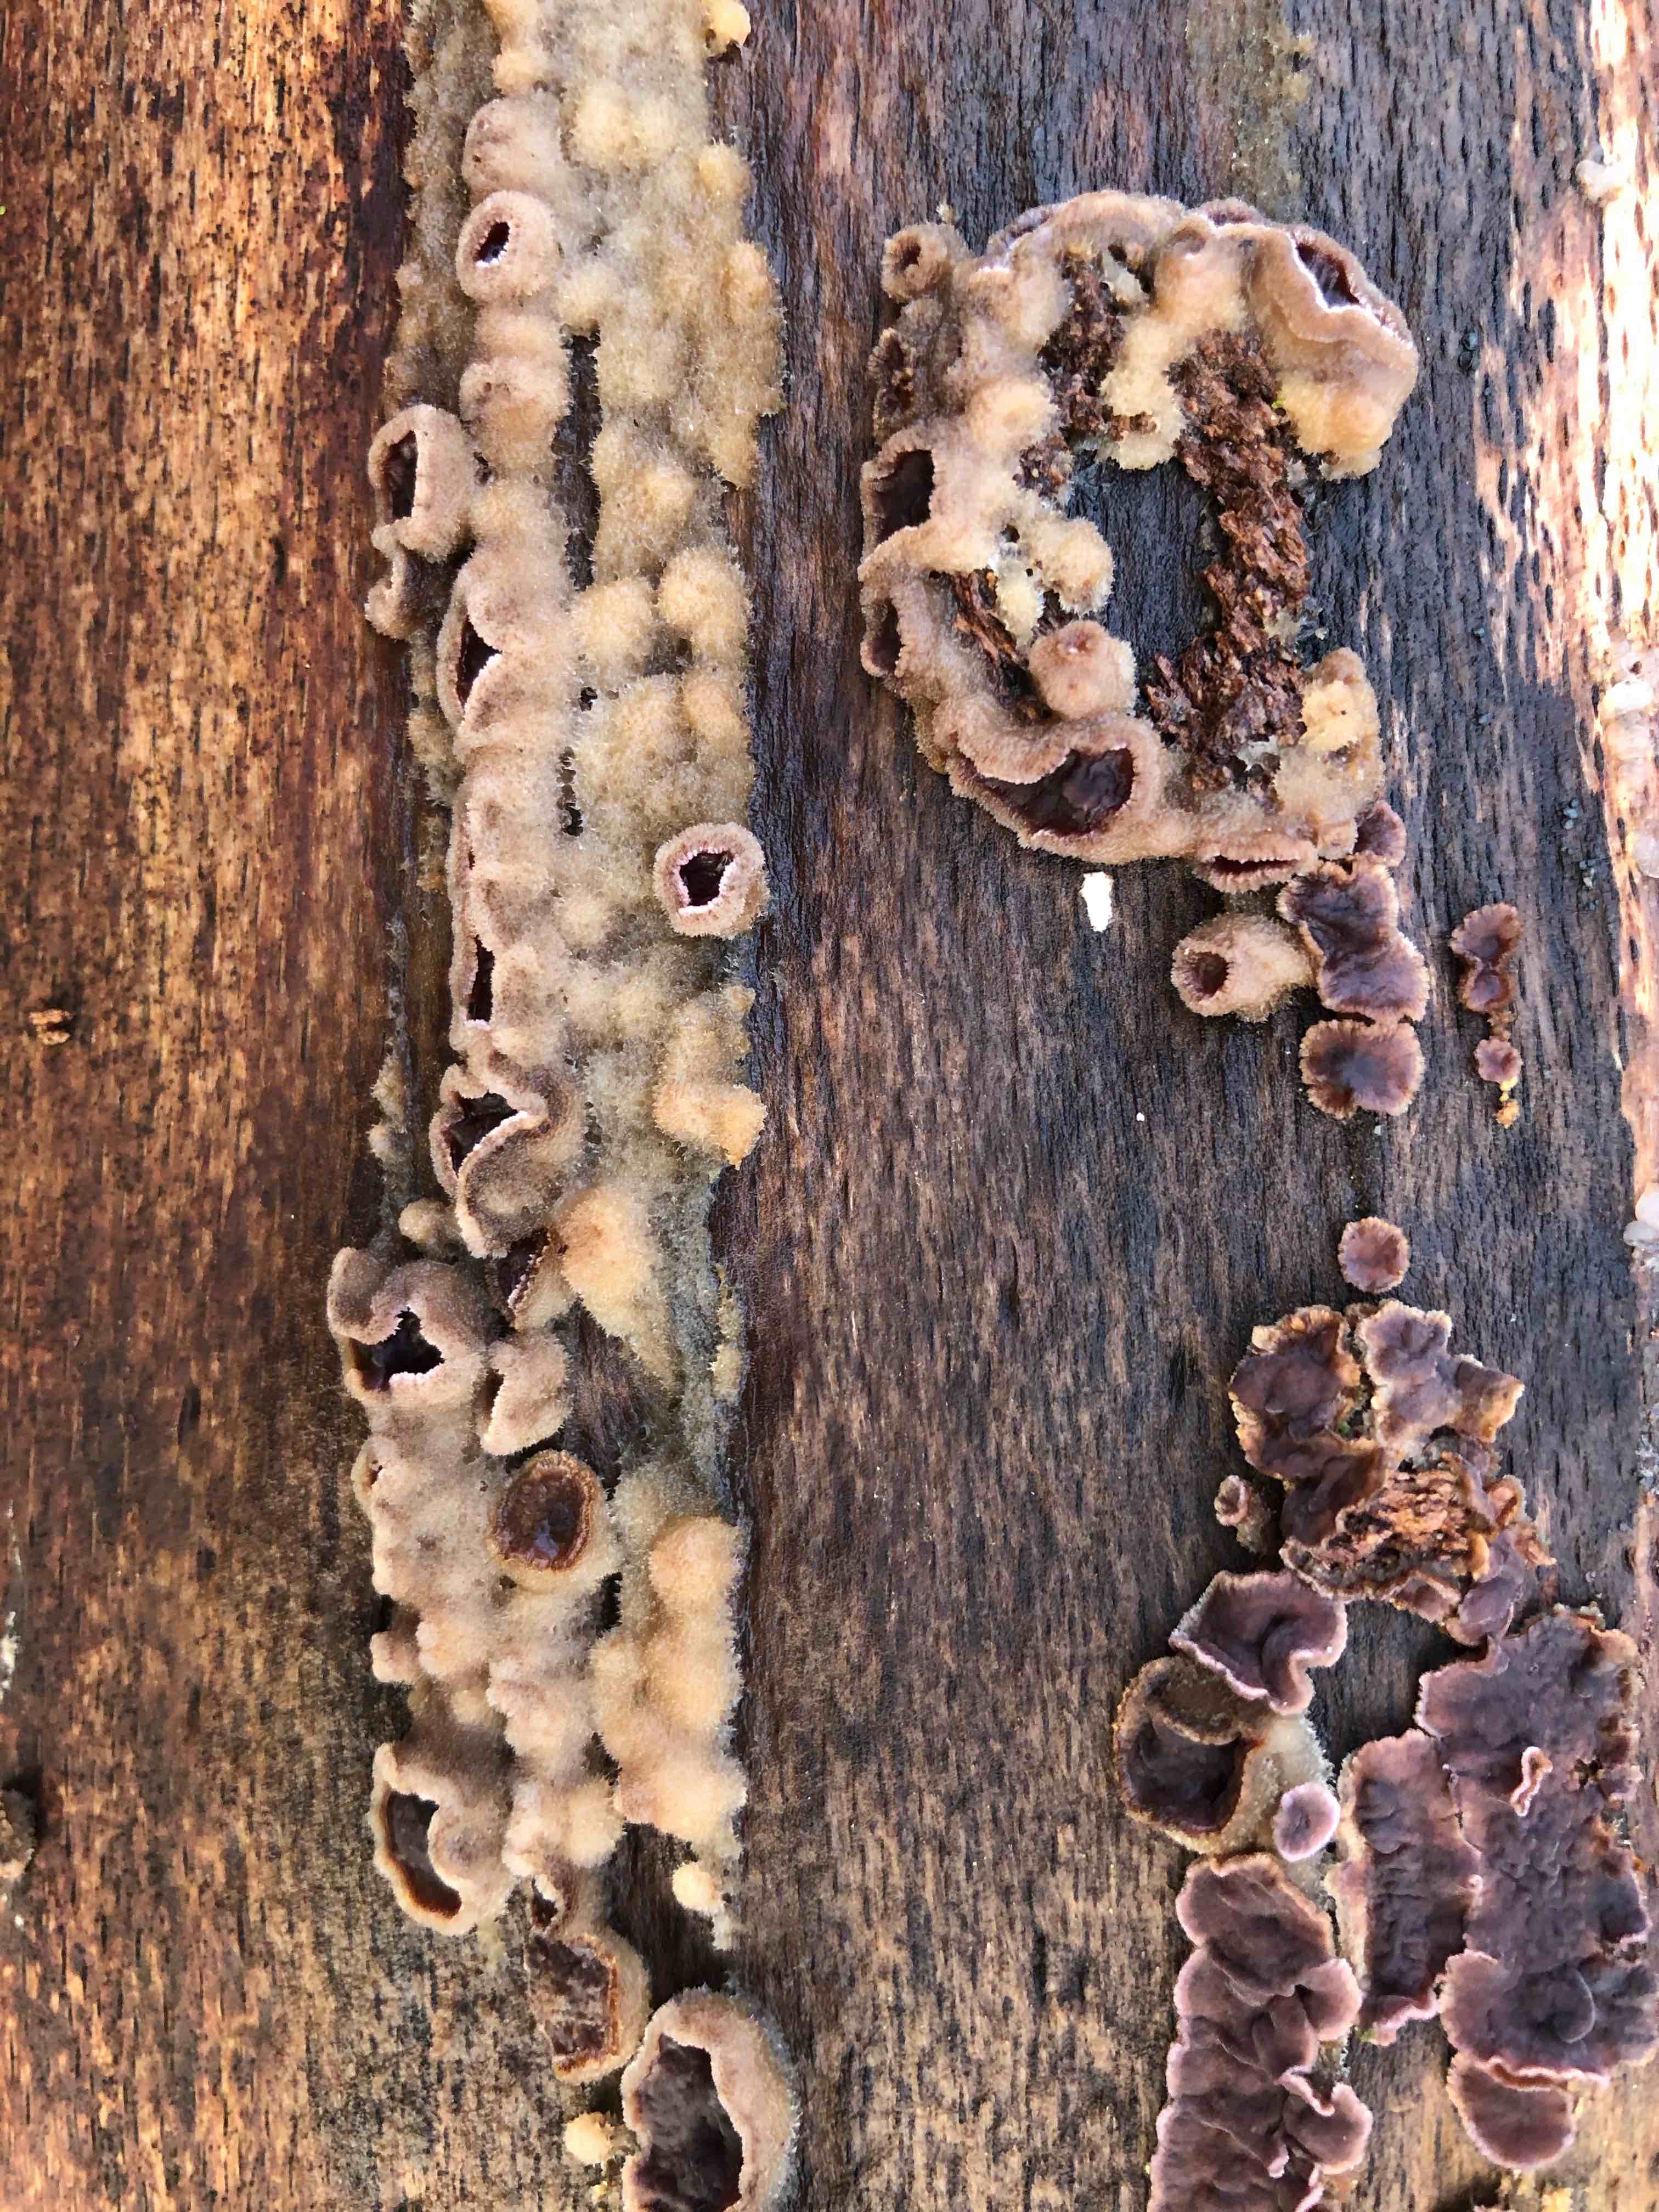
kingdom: Fungi
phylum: Basidiomycota
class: Agaricomycetes
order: Agaricales
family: Cyphellaceae
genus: Chondrostereum
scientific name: Chondrostereum purpureum
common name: purpurlædersvamp
